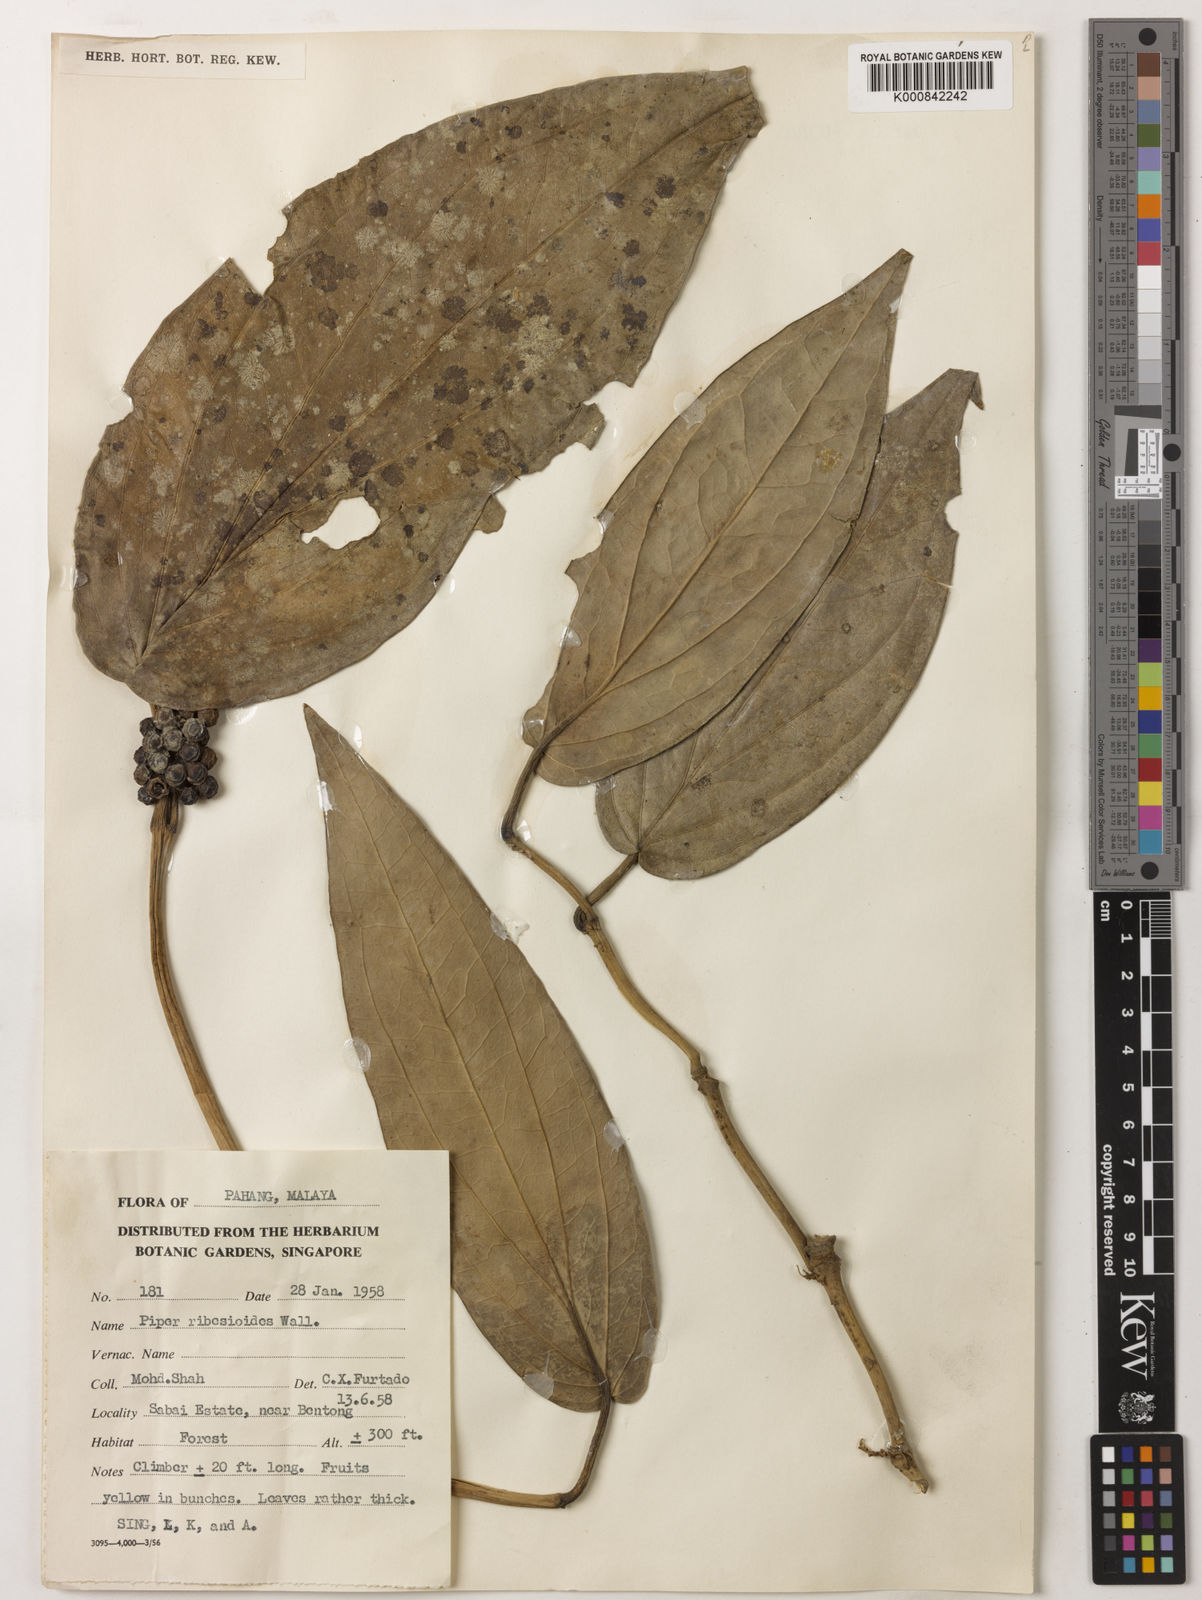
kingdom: Plantae
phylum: Tracheophyta
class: Magnoliopsida
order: Piperales
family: Piperaceae
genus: Piper
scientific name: Piper ribesioides
